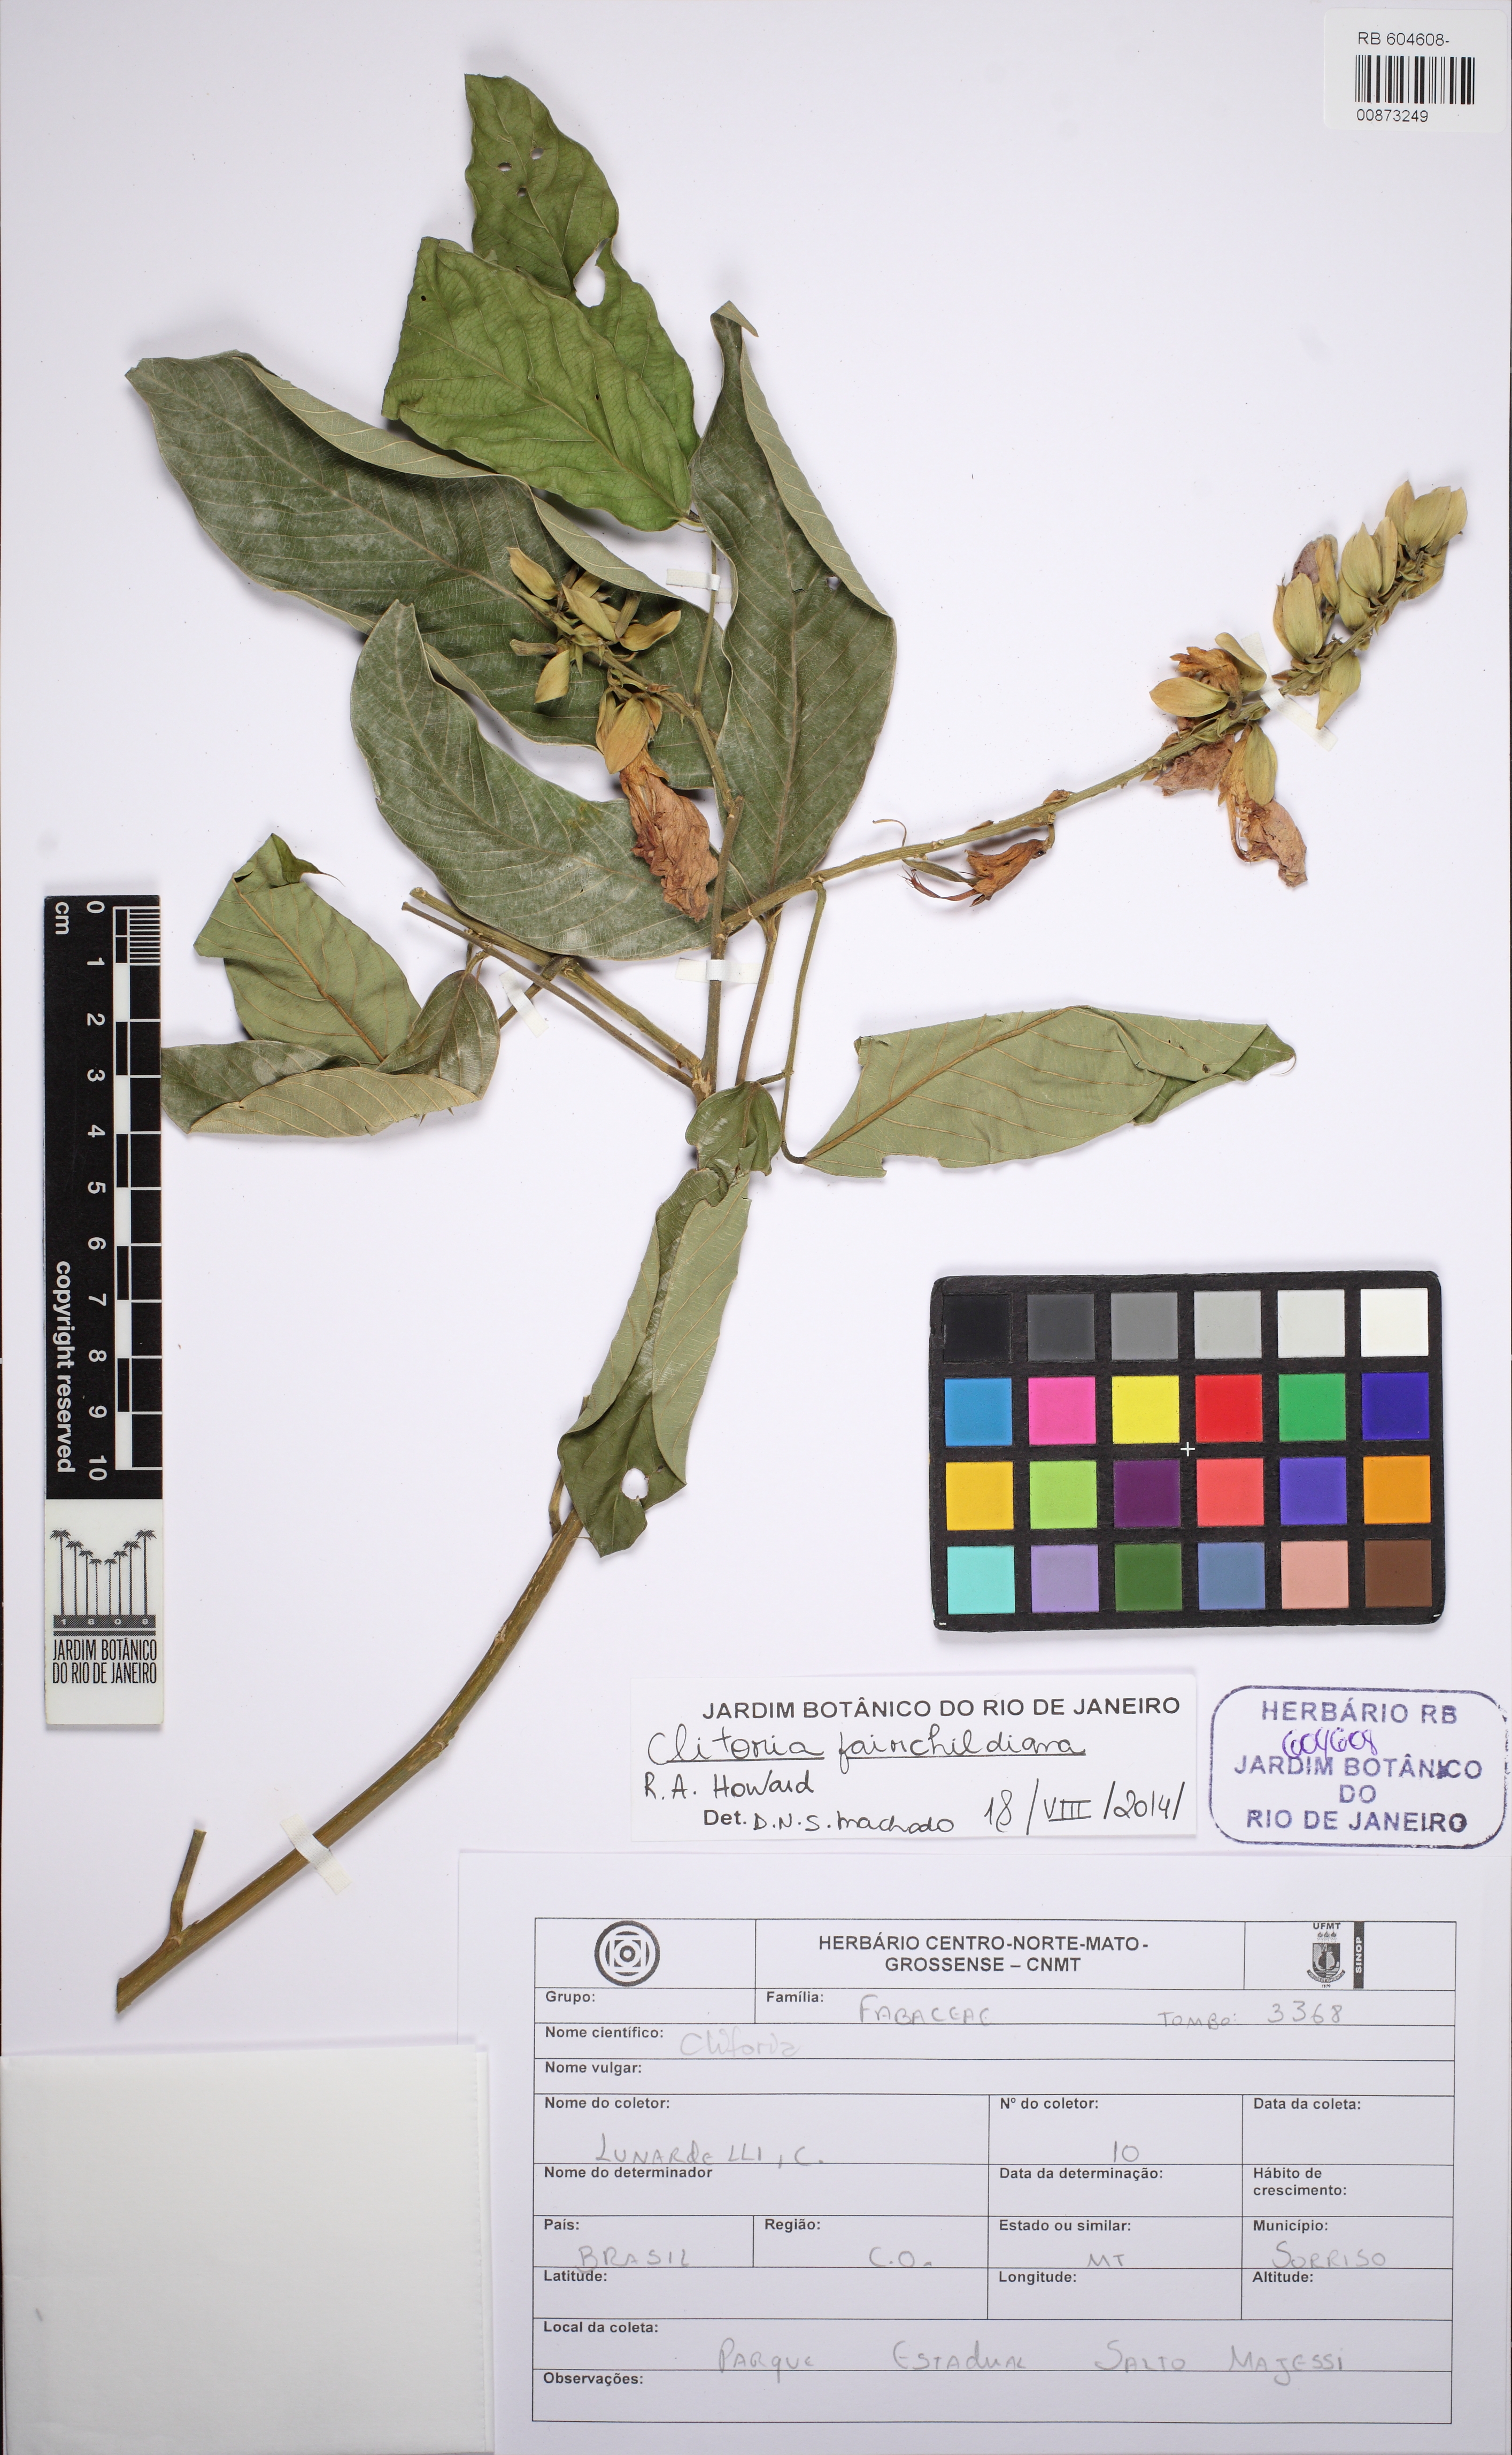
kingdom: Plantae
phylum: Tracheophyta
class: Magnoliopsida
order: Fabales
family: Fabaceae
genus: Clitoria
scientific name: Clitoria fairchildiana
